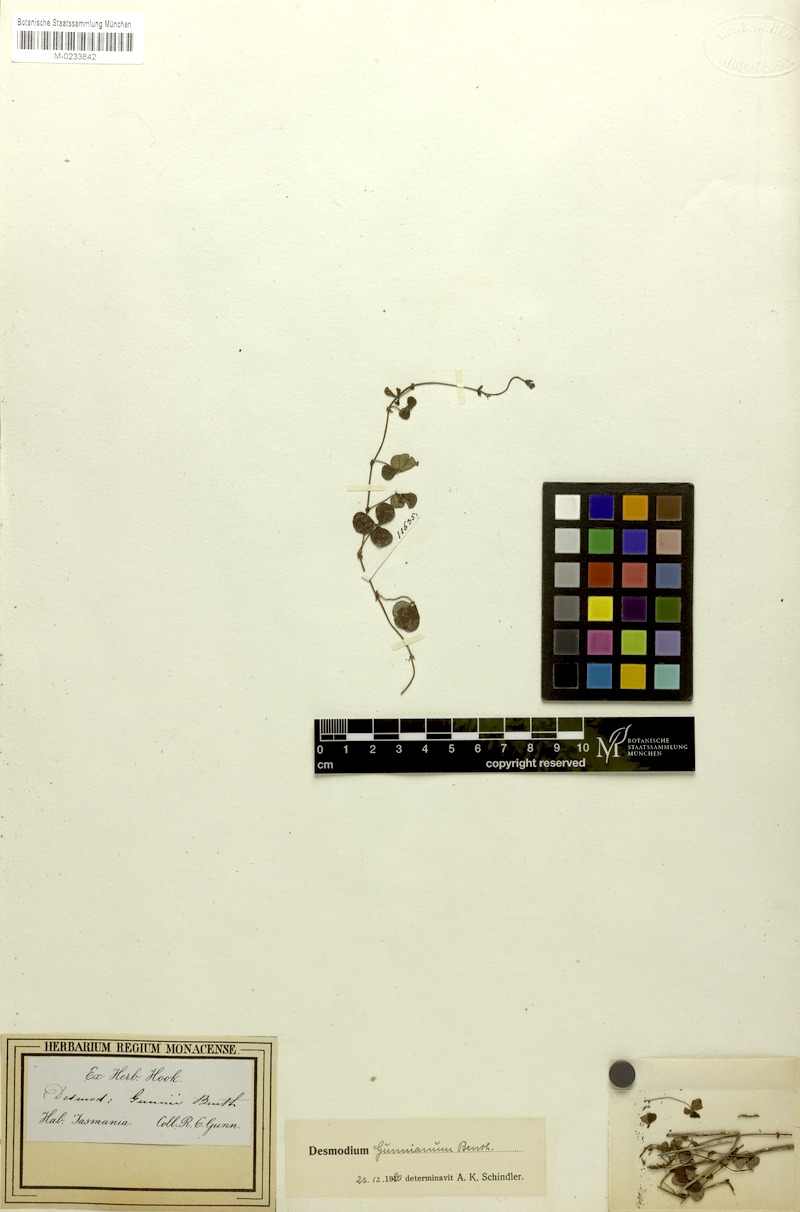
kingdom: Plantae
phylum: Tracheophyta
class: Magnoliopsida
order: Fabales
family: Fabaceae
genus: Pullenia
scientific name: Pullenia gunnii
